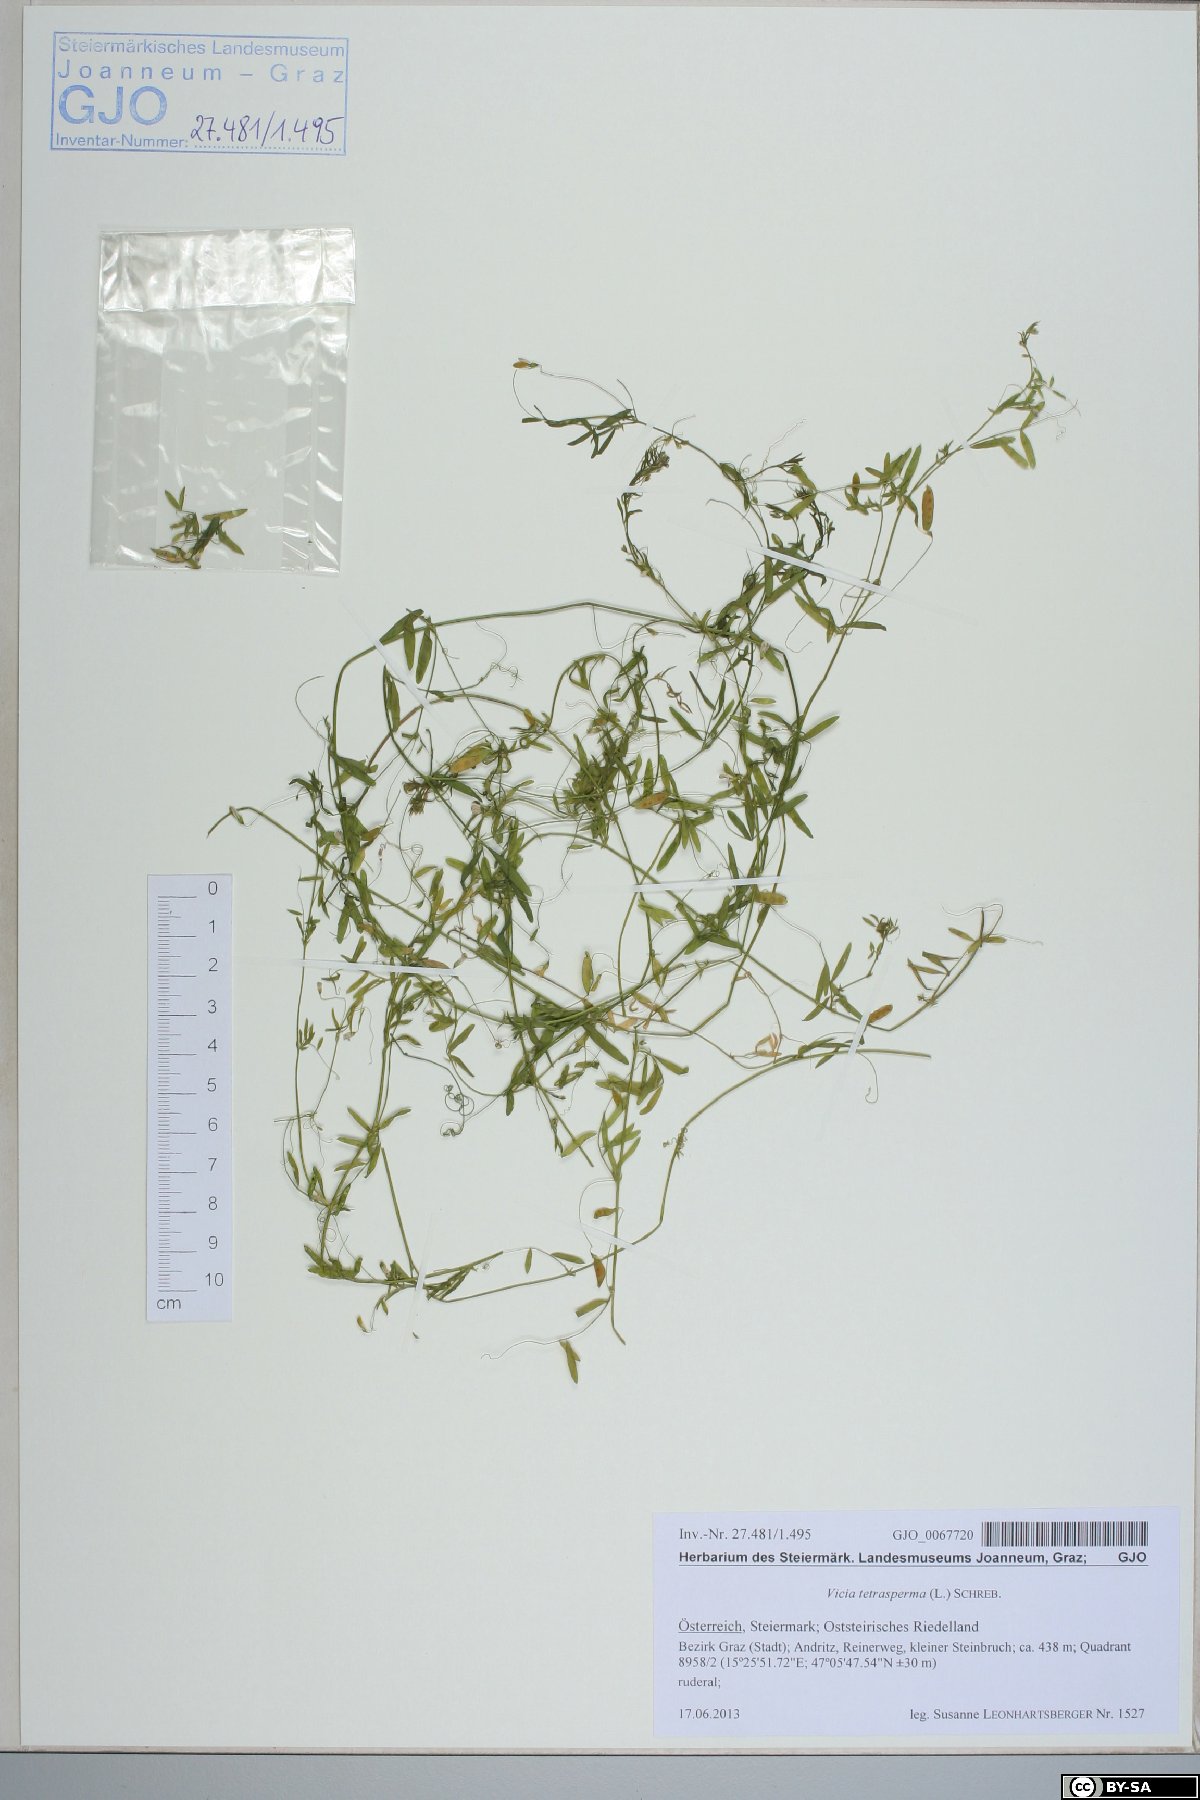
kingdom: Plantae
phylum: Tracheophyta
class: Magnoliopsida
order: Fabales
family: Fabaceae
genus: Vicia
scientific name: Vicia tetrasperma
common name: Smooth tare
